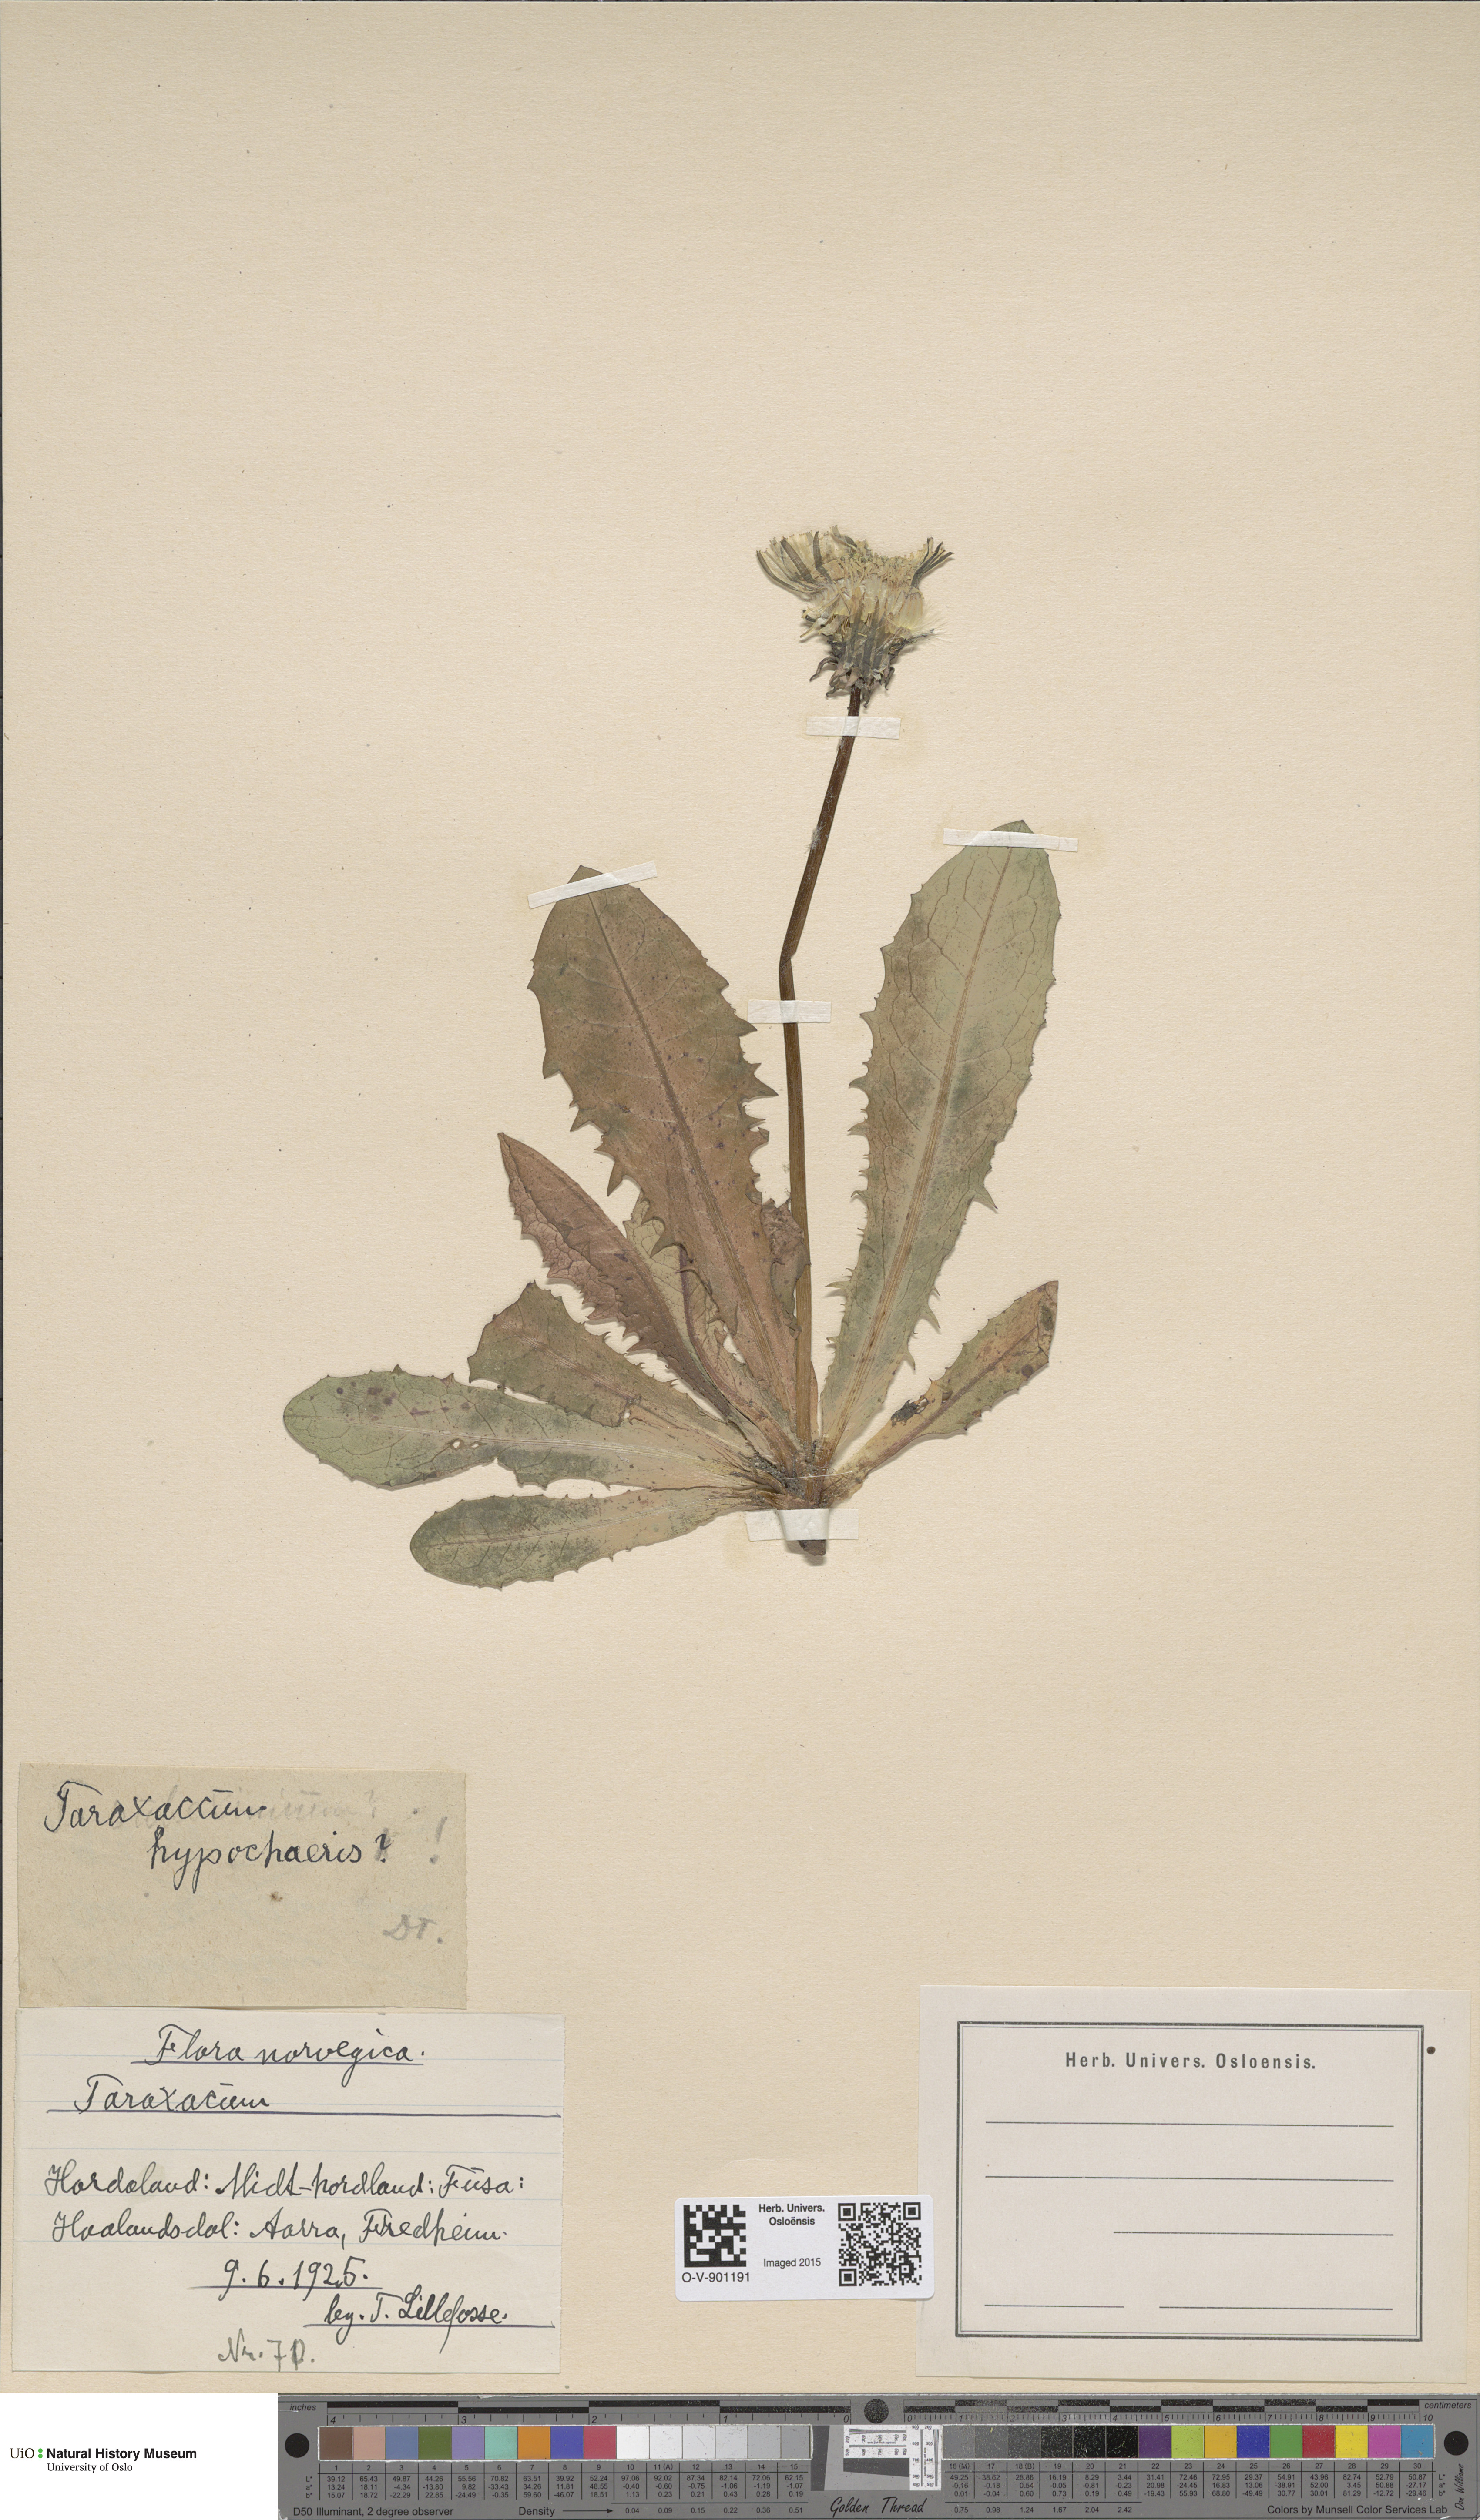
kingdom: Plantae
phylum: Tracheophyta
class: Magnoliopsida
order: Asterales
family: Asteraceae
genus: Taraxacum
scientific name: Taraxacum hypochoeris
